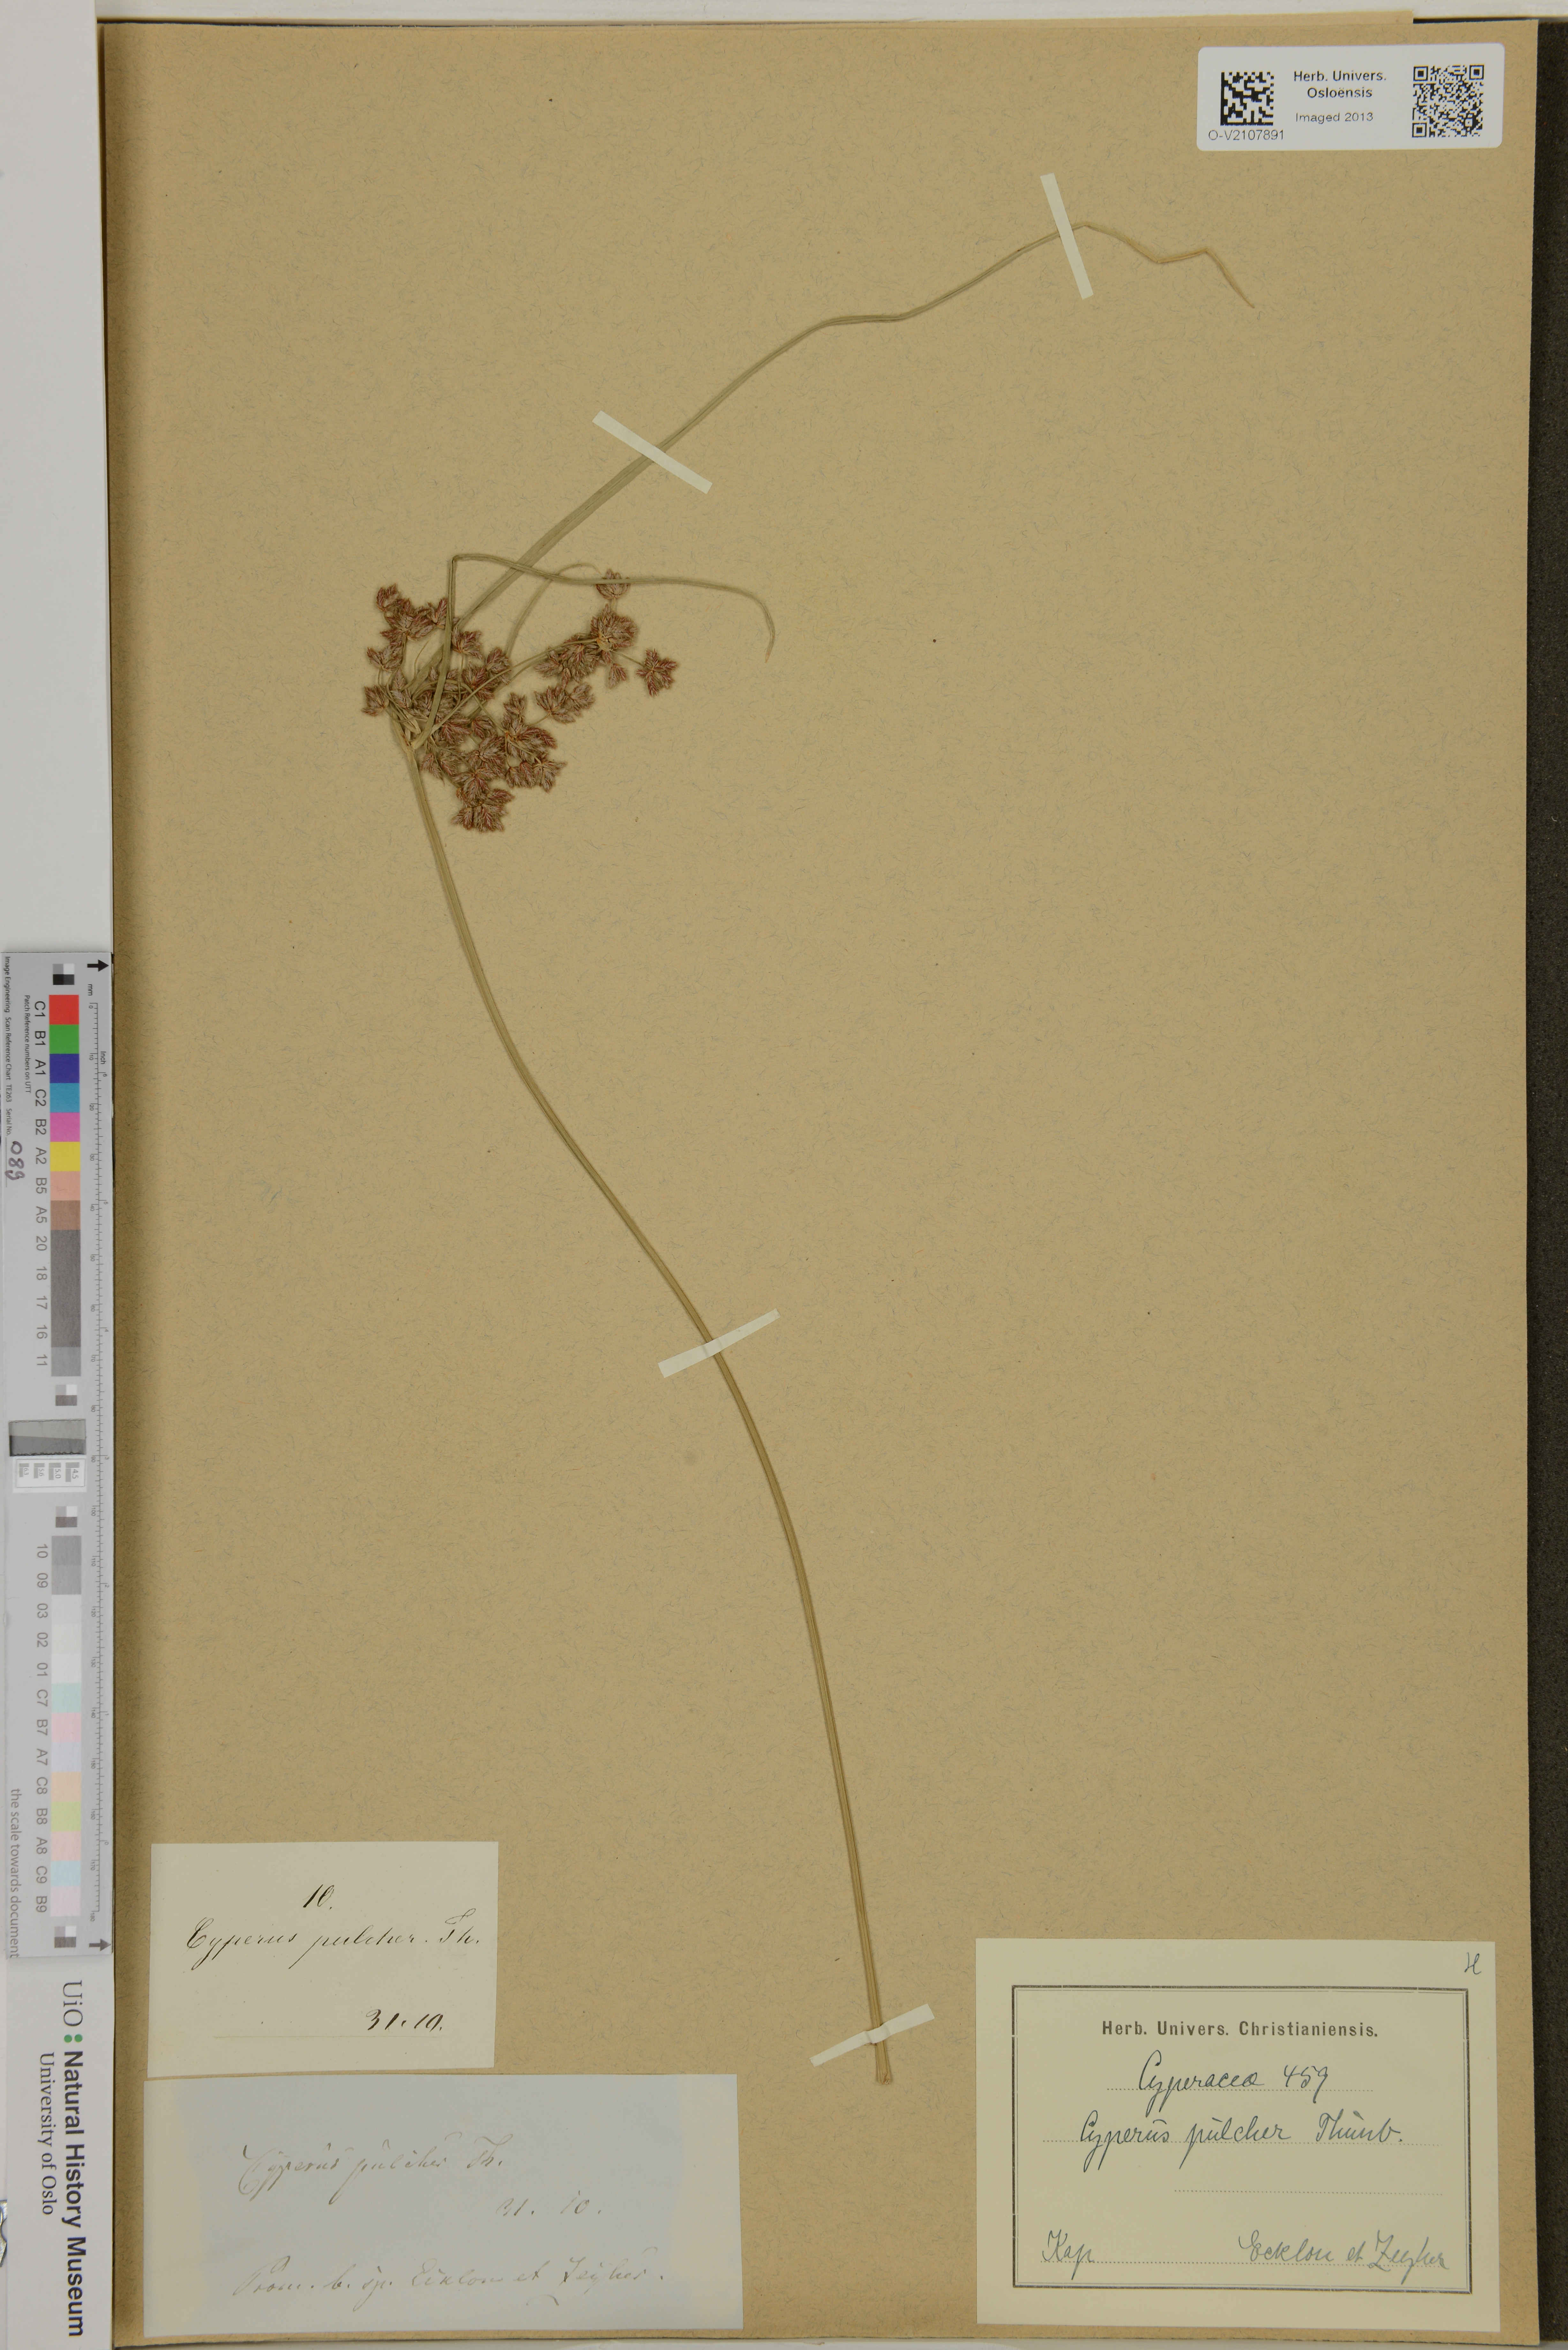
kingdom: Plantae
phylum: Tracheophyta
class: Liliopsida
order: Poales
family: Cyperaceae
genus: Cyperus
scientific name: Cyperus pulcher
